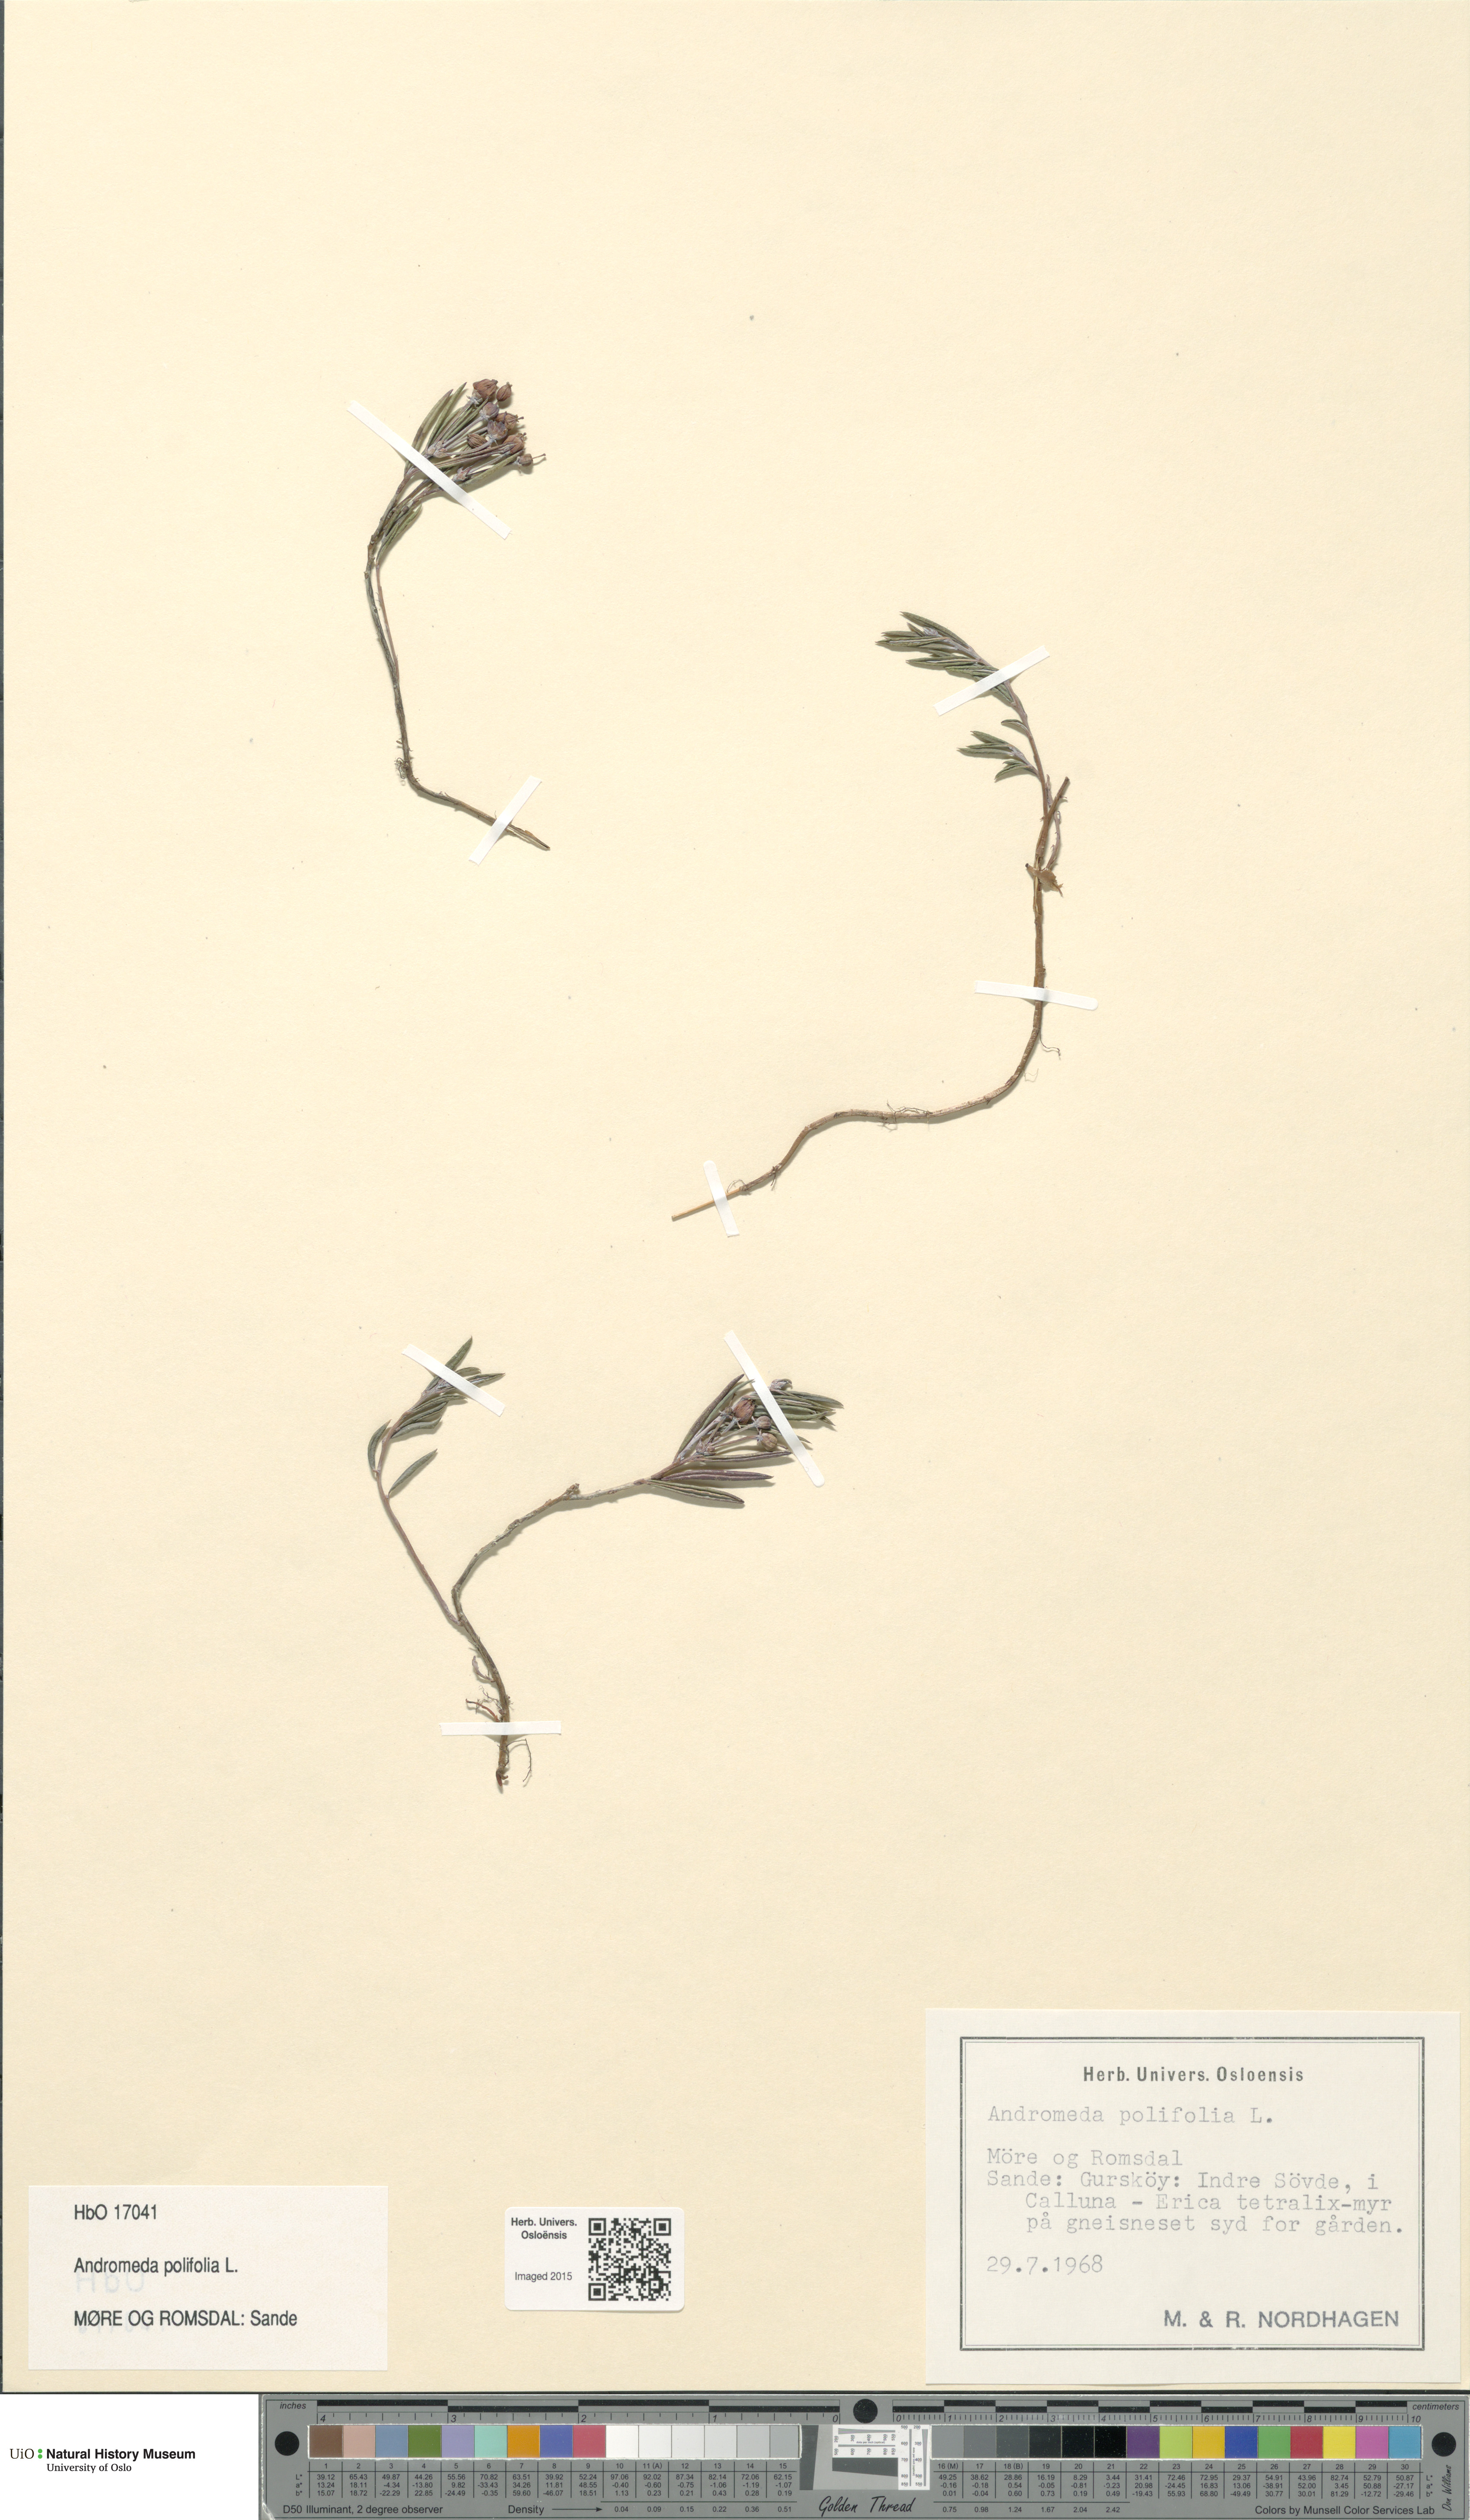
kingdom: Plantae
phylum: Tracheophyta
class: Magnoliopsida
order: Ericales
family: Ericaceae
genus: Andromeda
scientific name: Andromeda polifolia
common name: Bog-rosemary
